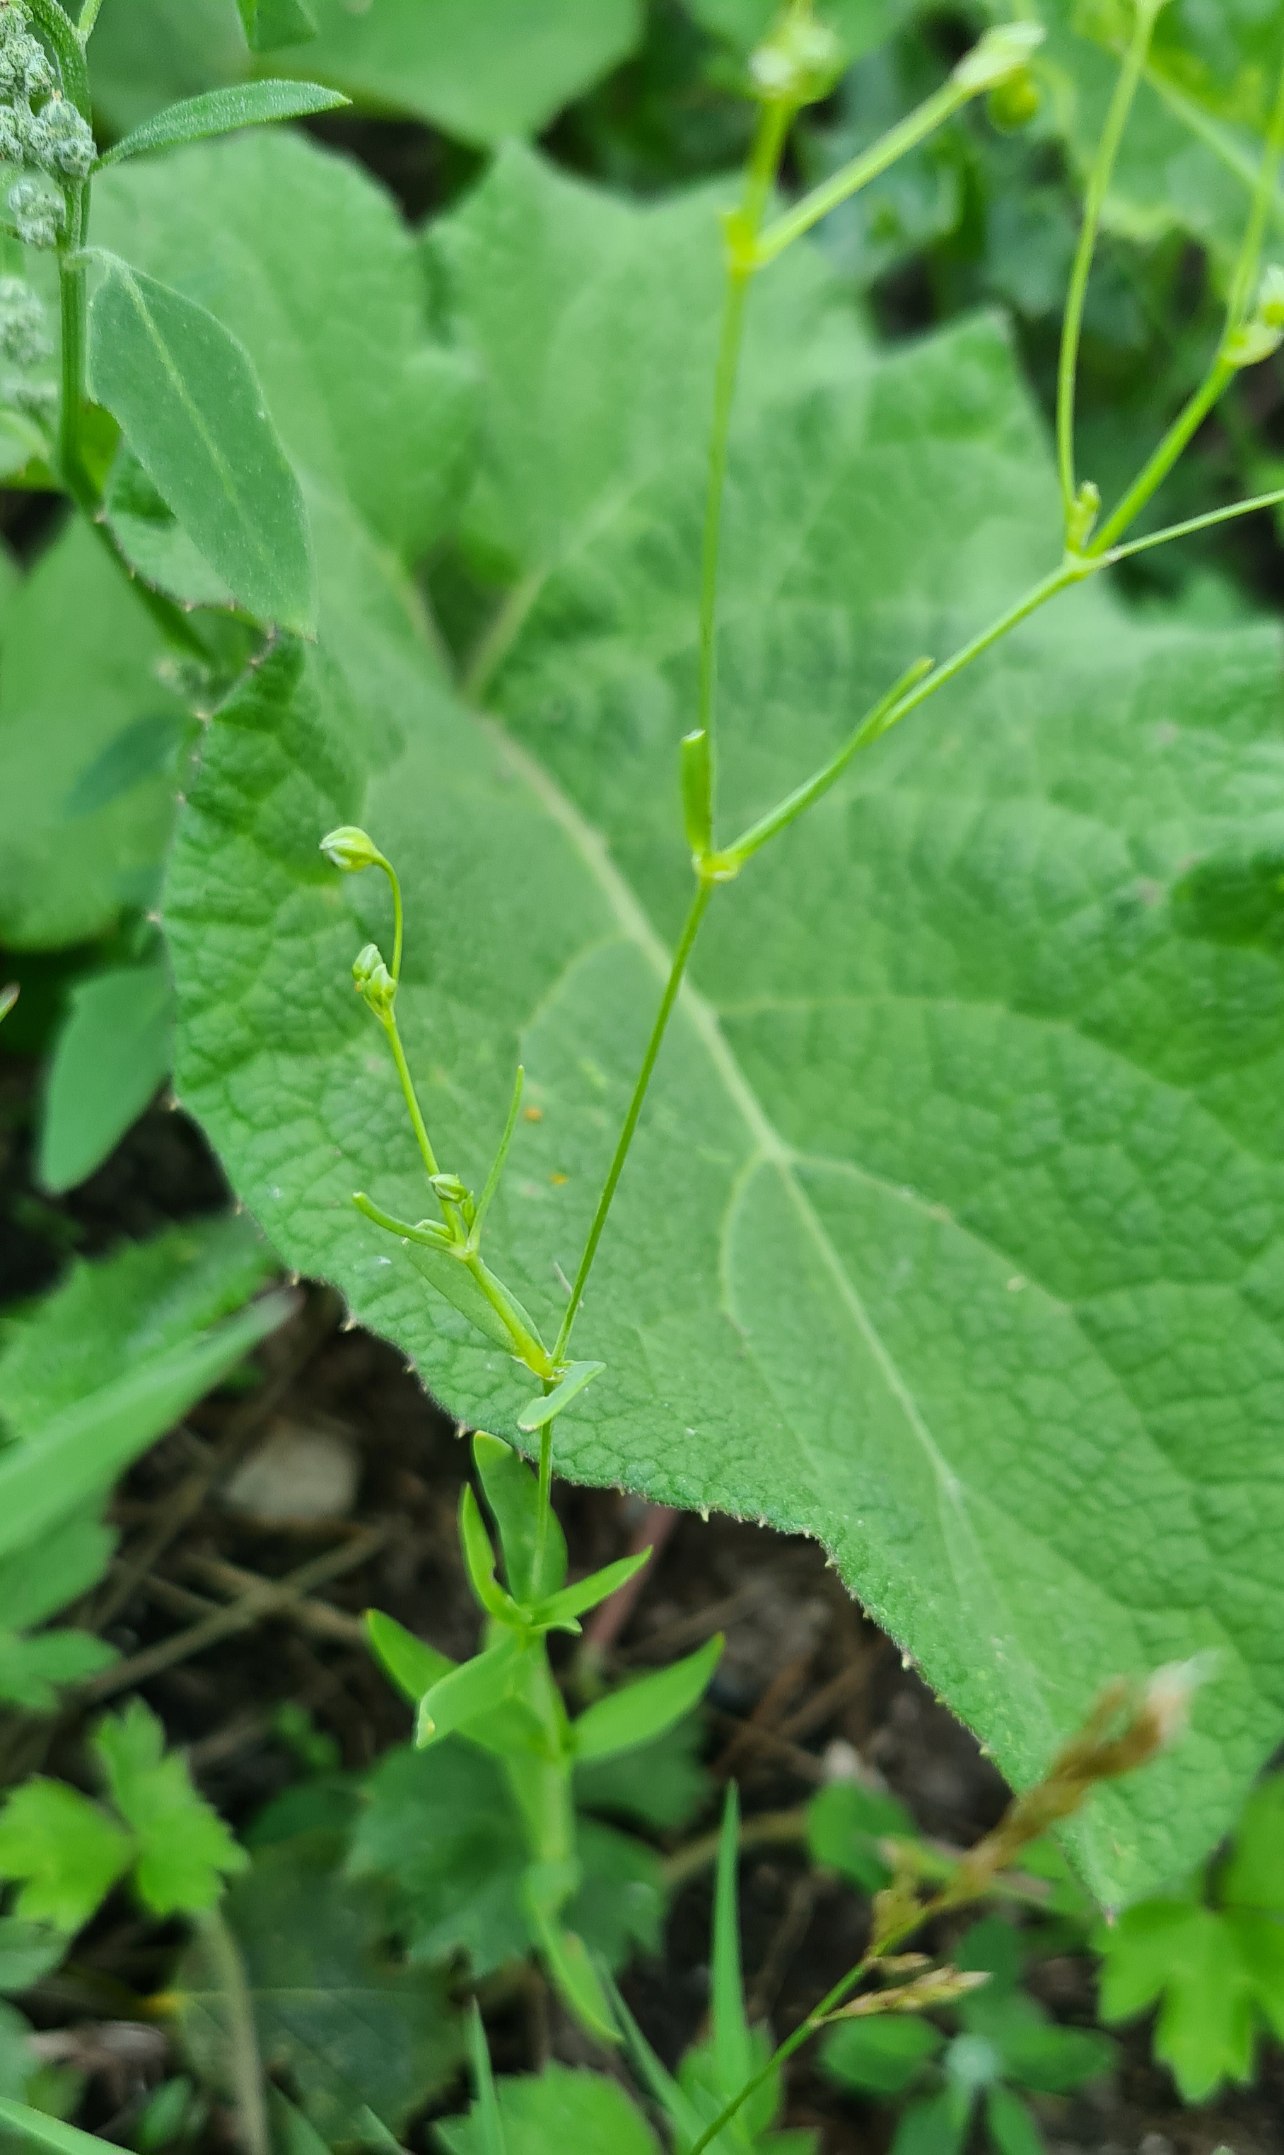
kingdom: Plantae
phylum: Tracheophyta
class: Magnoliopsida
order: Caryophyllales
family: Caryophyllaceae
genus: Gypsophila
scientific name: Gypsophila elegans
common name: Enårig brudeslør
